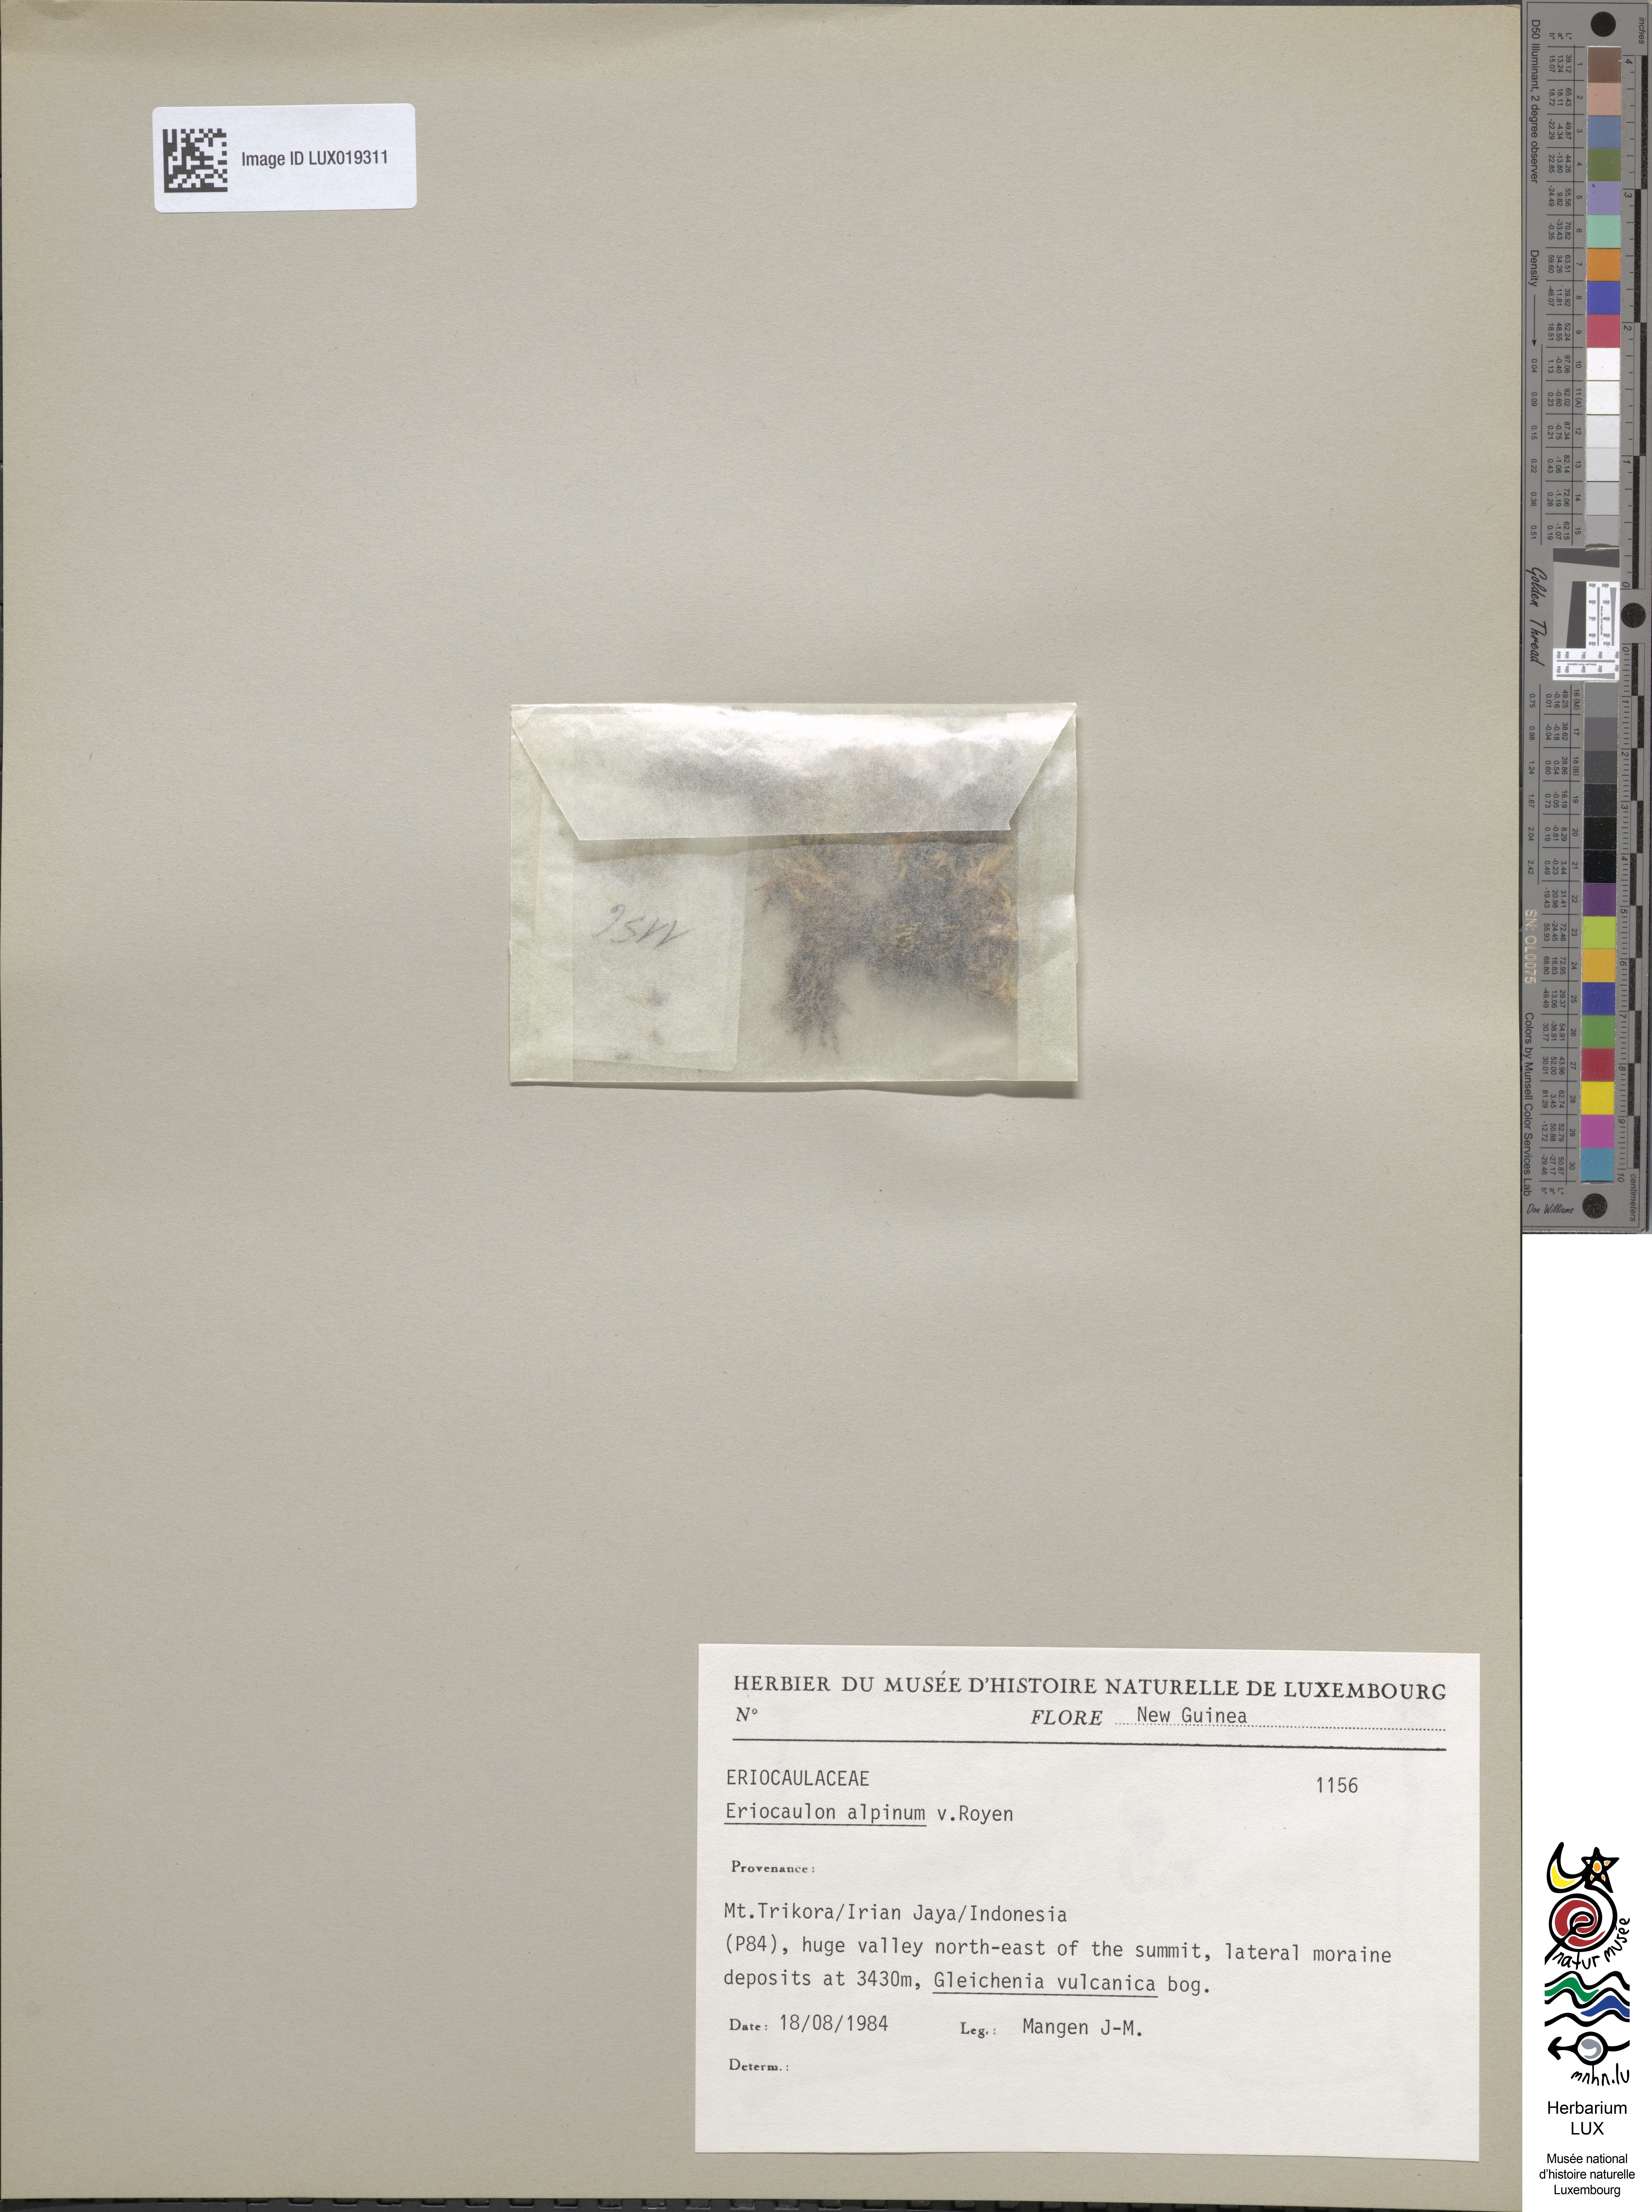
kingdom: Plantae
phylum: Tracheophyta
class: Liliopsida
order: Poales
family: Eriocaulaceae
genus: Eriocaulon
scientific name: Eriocaulon alpinum
